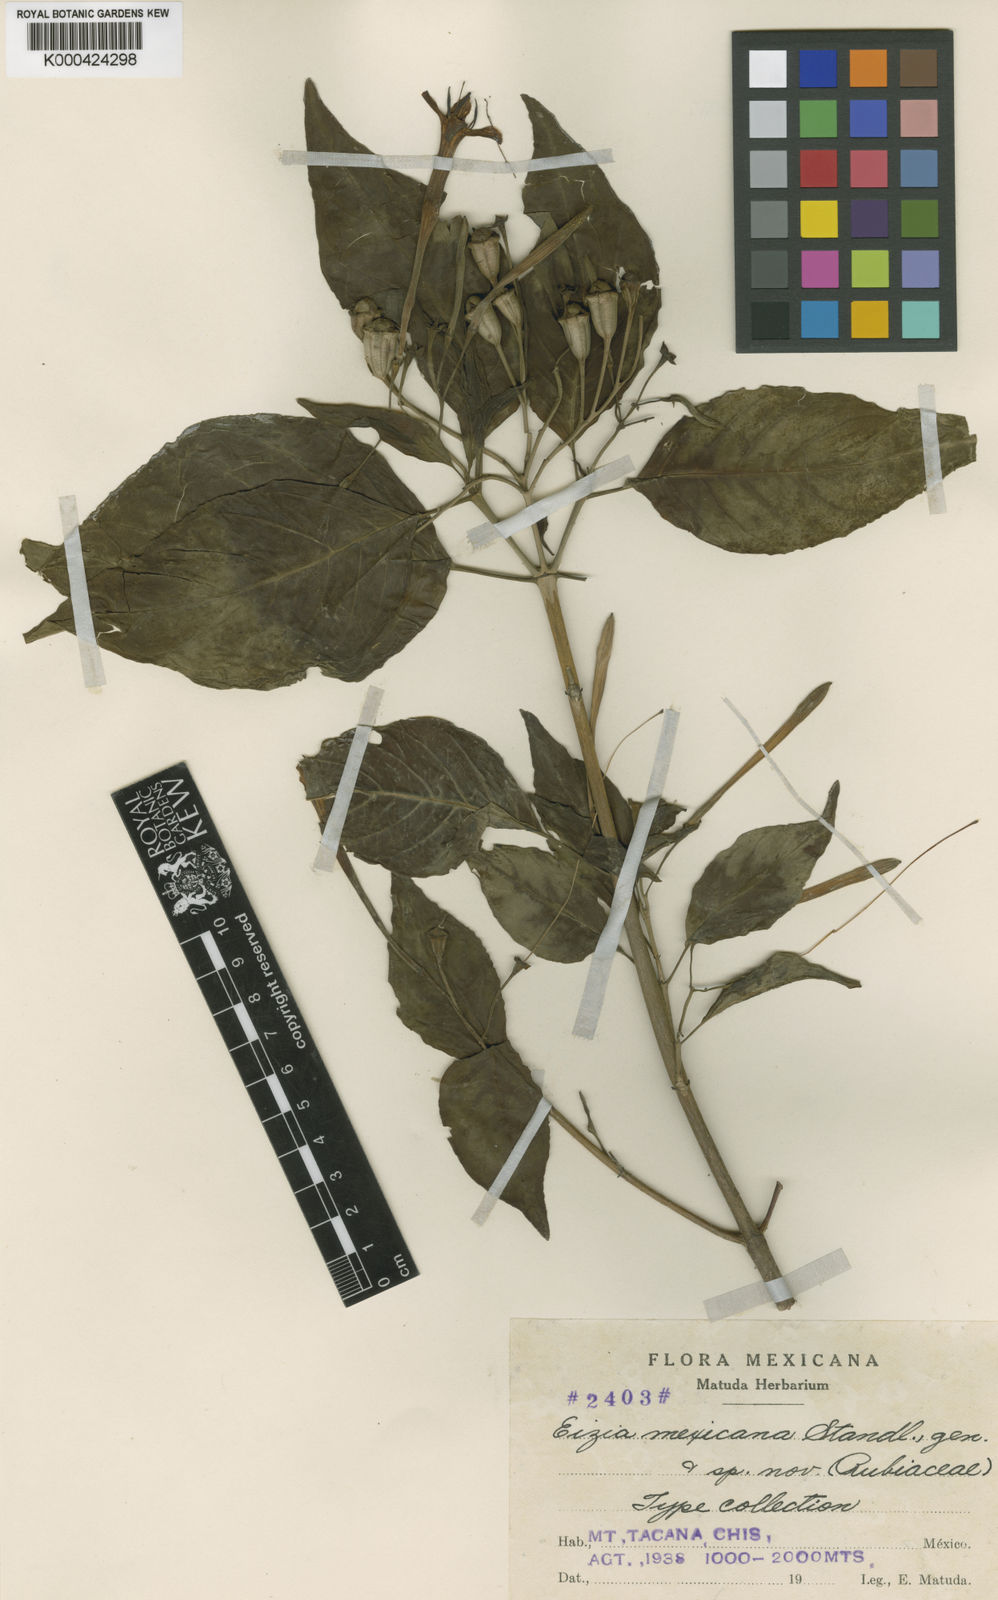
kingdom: Plantae
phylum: Tracheophyta
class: Magnoliopsida
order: Gentianales
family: Rubiaceae
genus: Eizia
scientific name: Eizia mexicana
